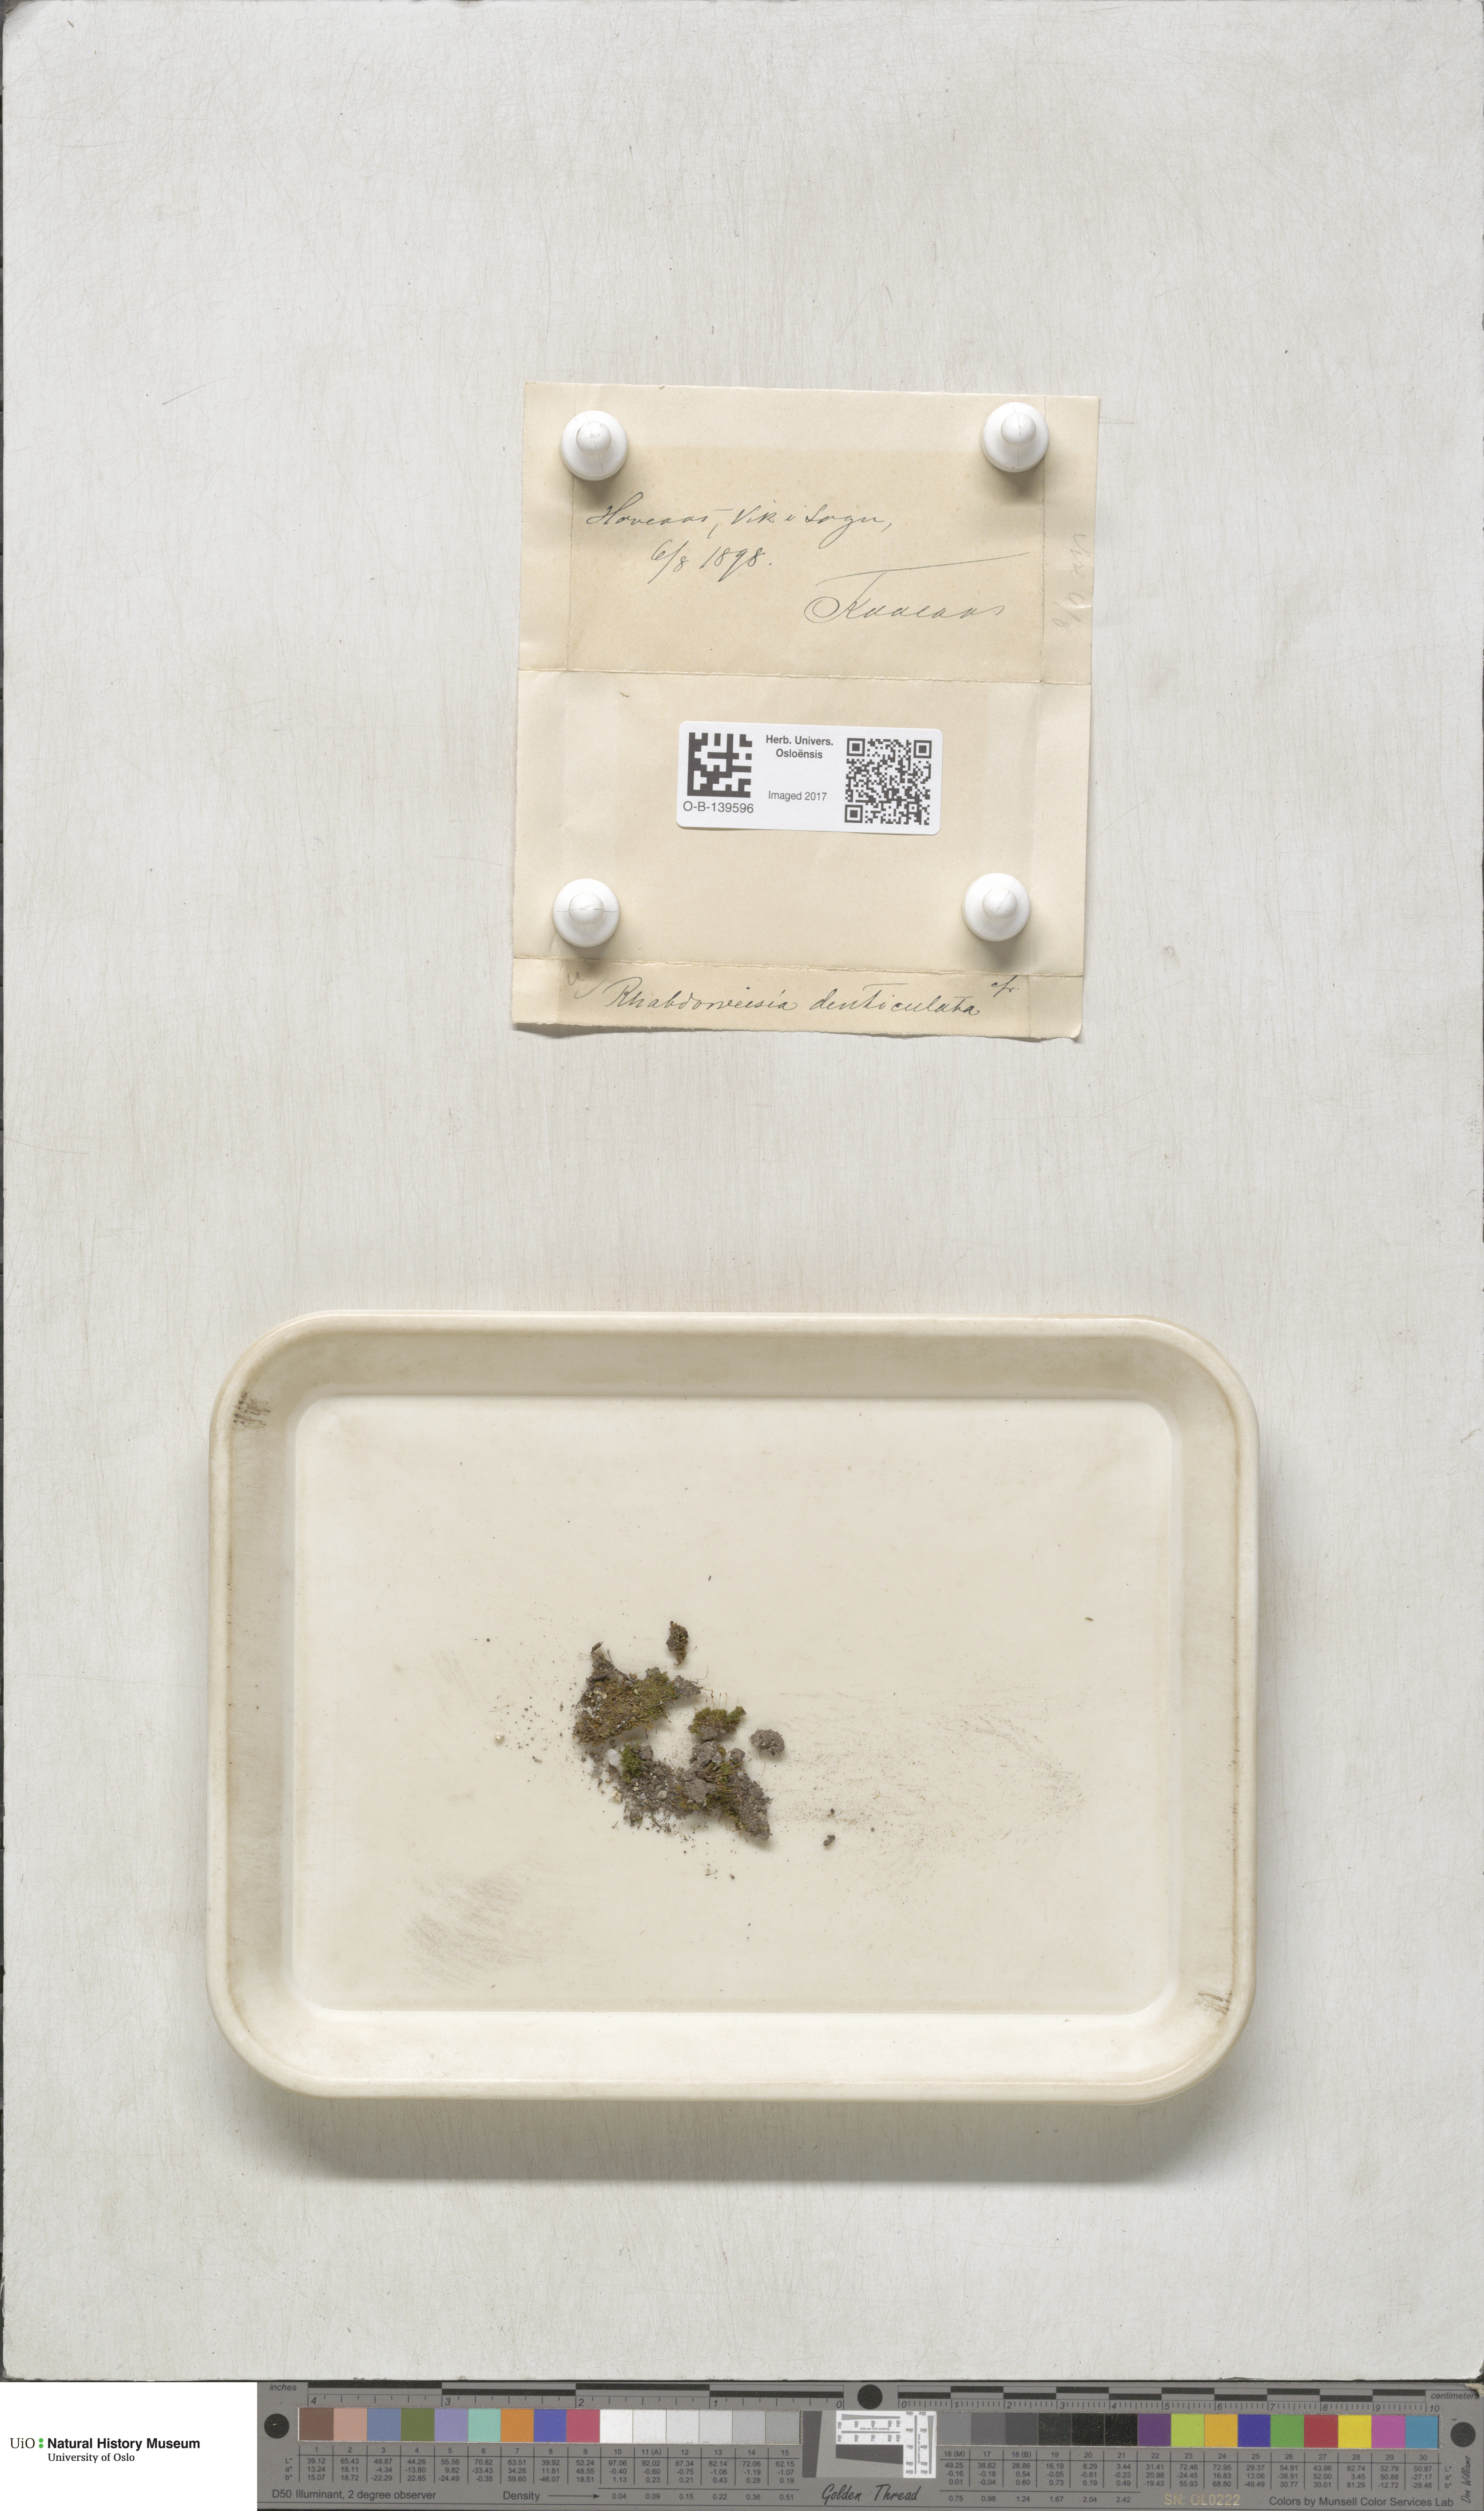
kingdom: Plantae
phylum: Bryophyta
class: Bryopsida
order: Dicranales
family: Rhabdoweisiaceae
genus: Rhabdoweisia
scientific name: Rhabdoweisia crispata
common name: Fine-toothed streak moss
